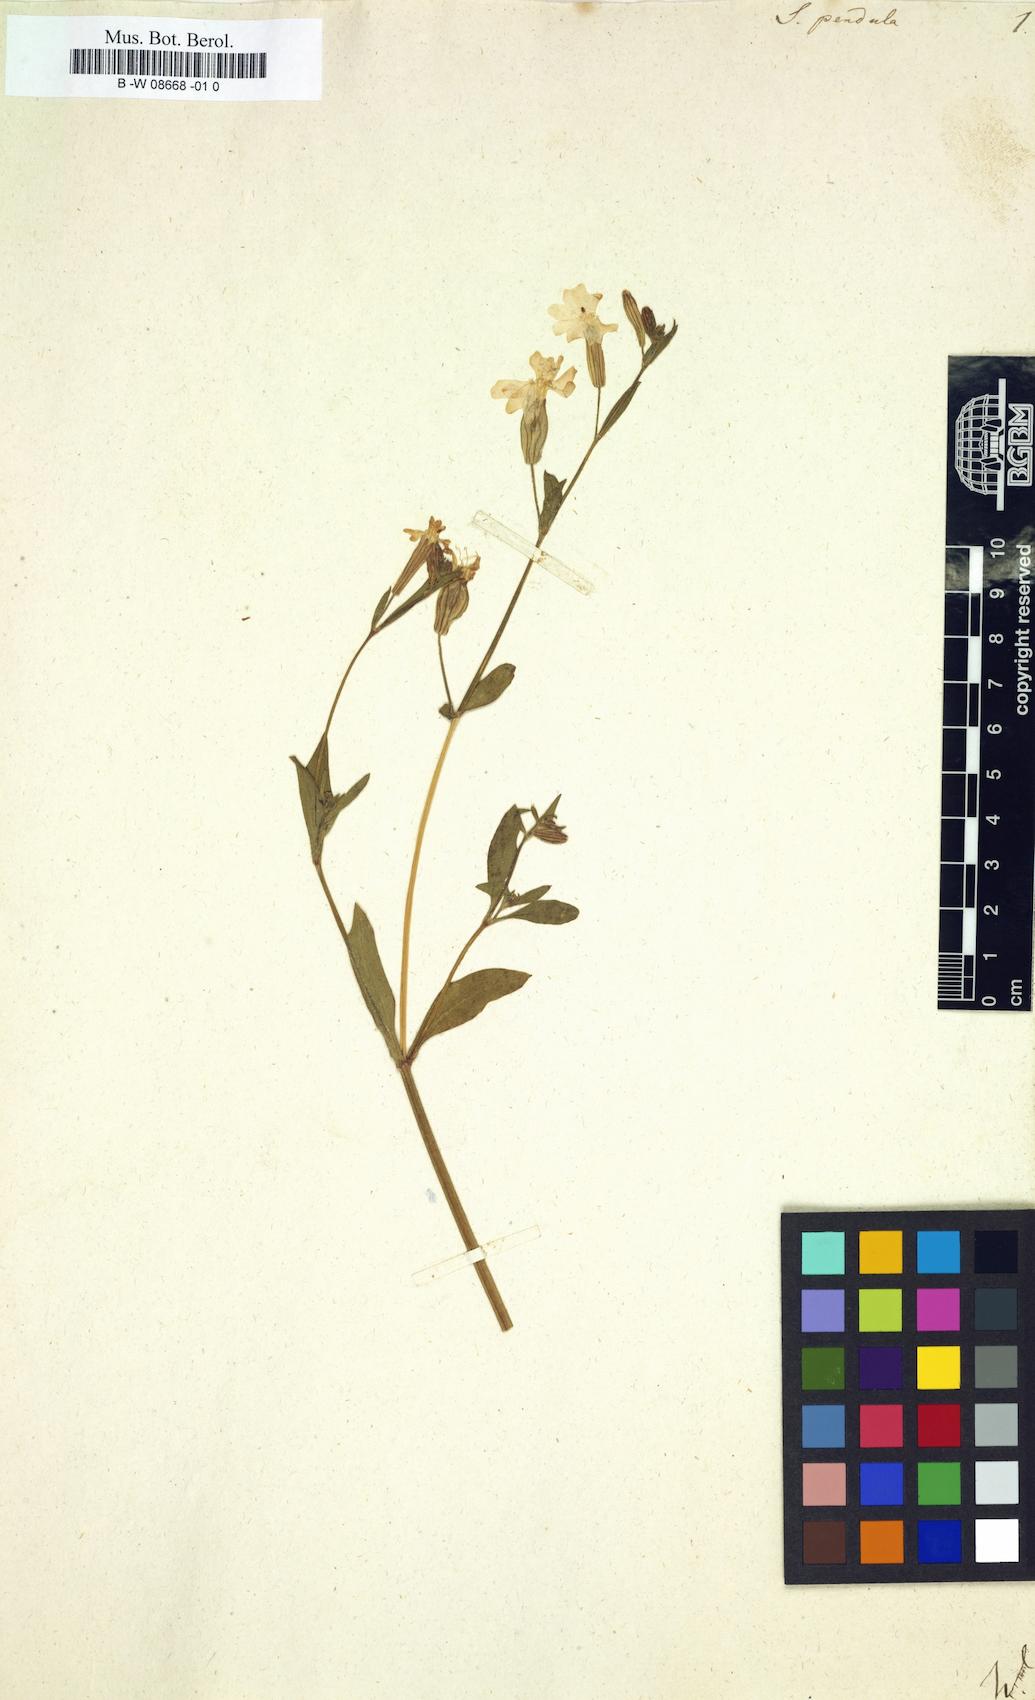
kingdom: Plantae
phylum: Tracheophyta
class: Magnoliopsida
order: Caryophyllales
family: Caryophyllaceae
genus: Silene
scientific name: Silene pendula
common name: Nodding catchfly
